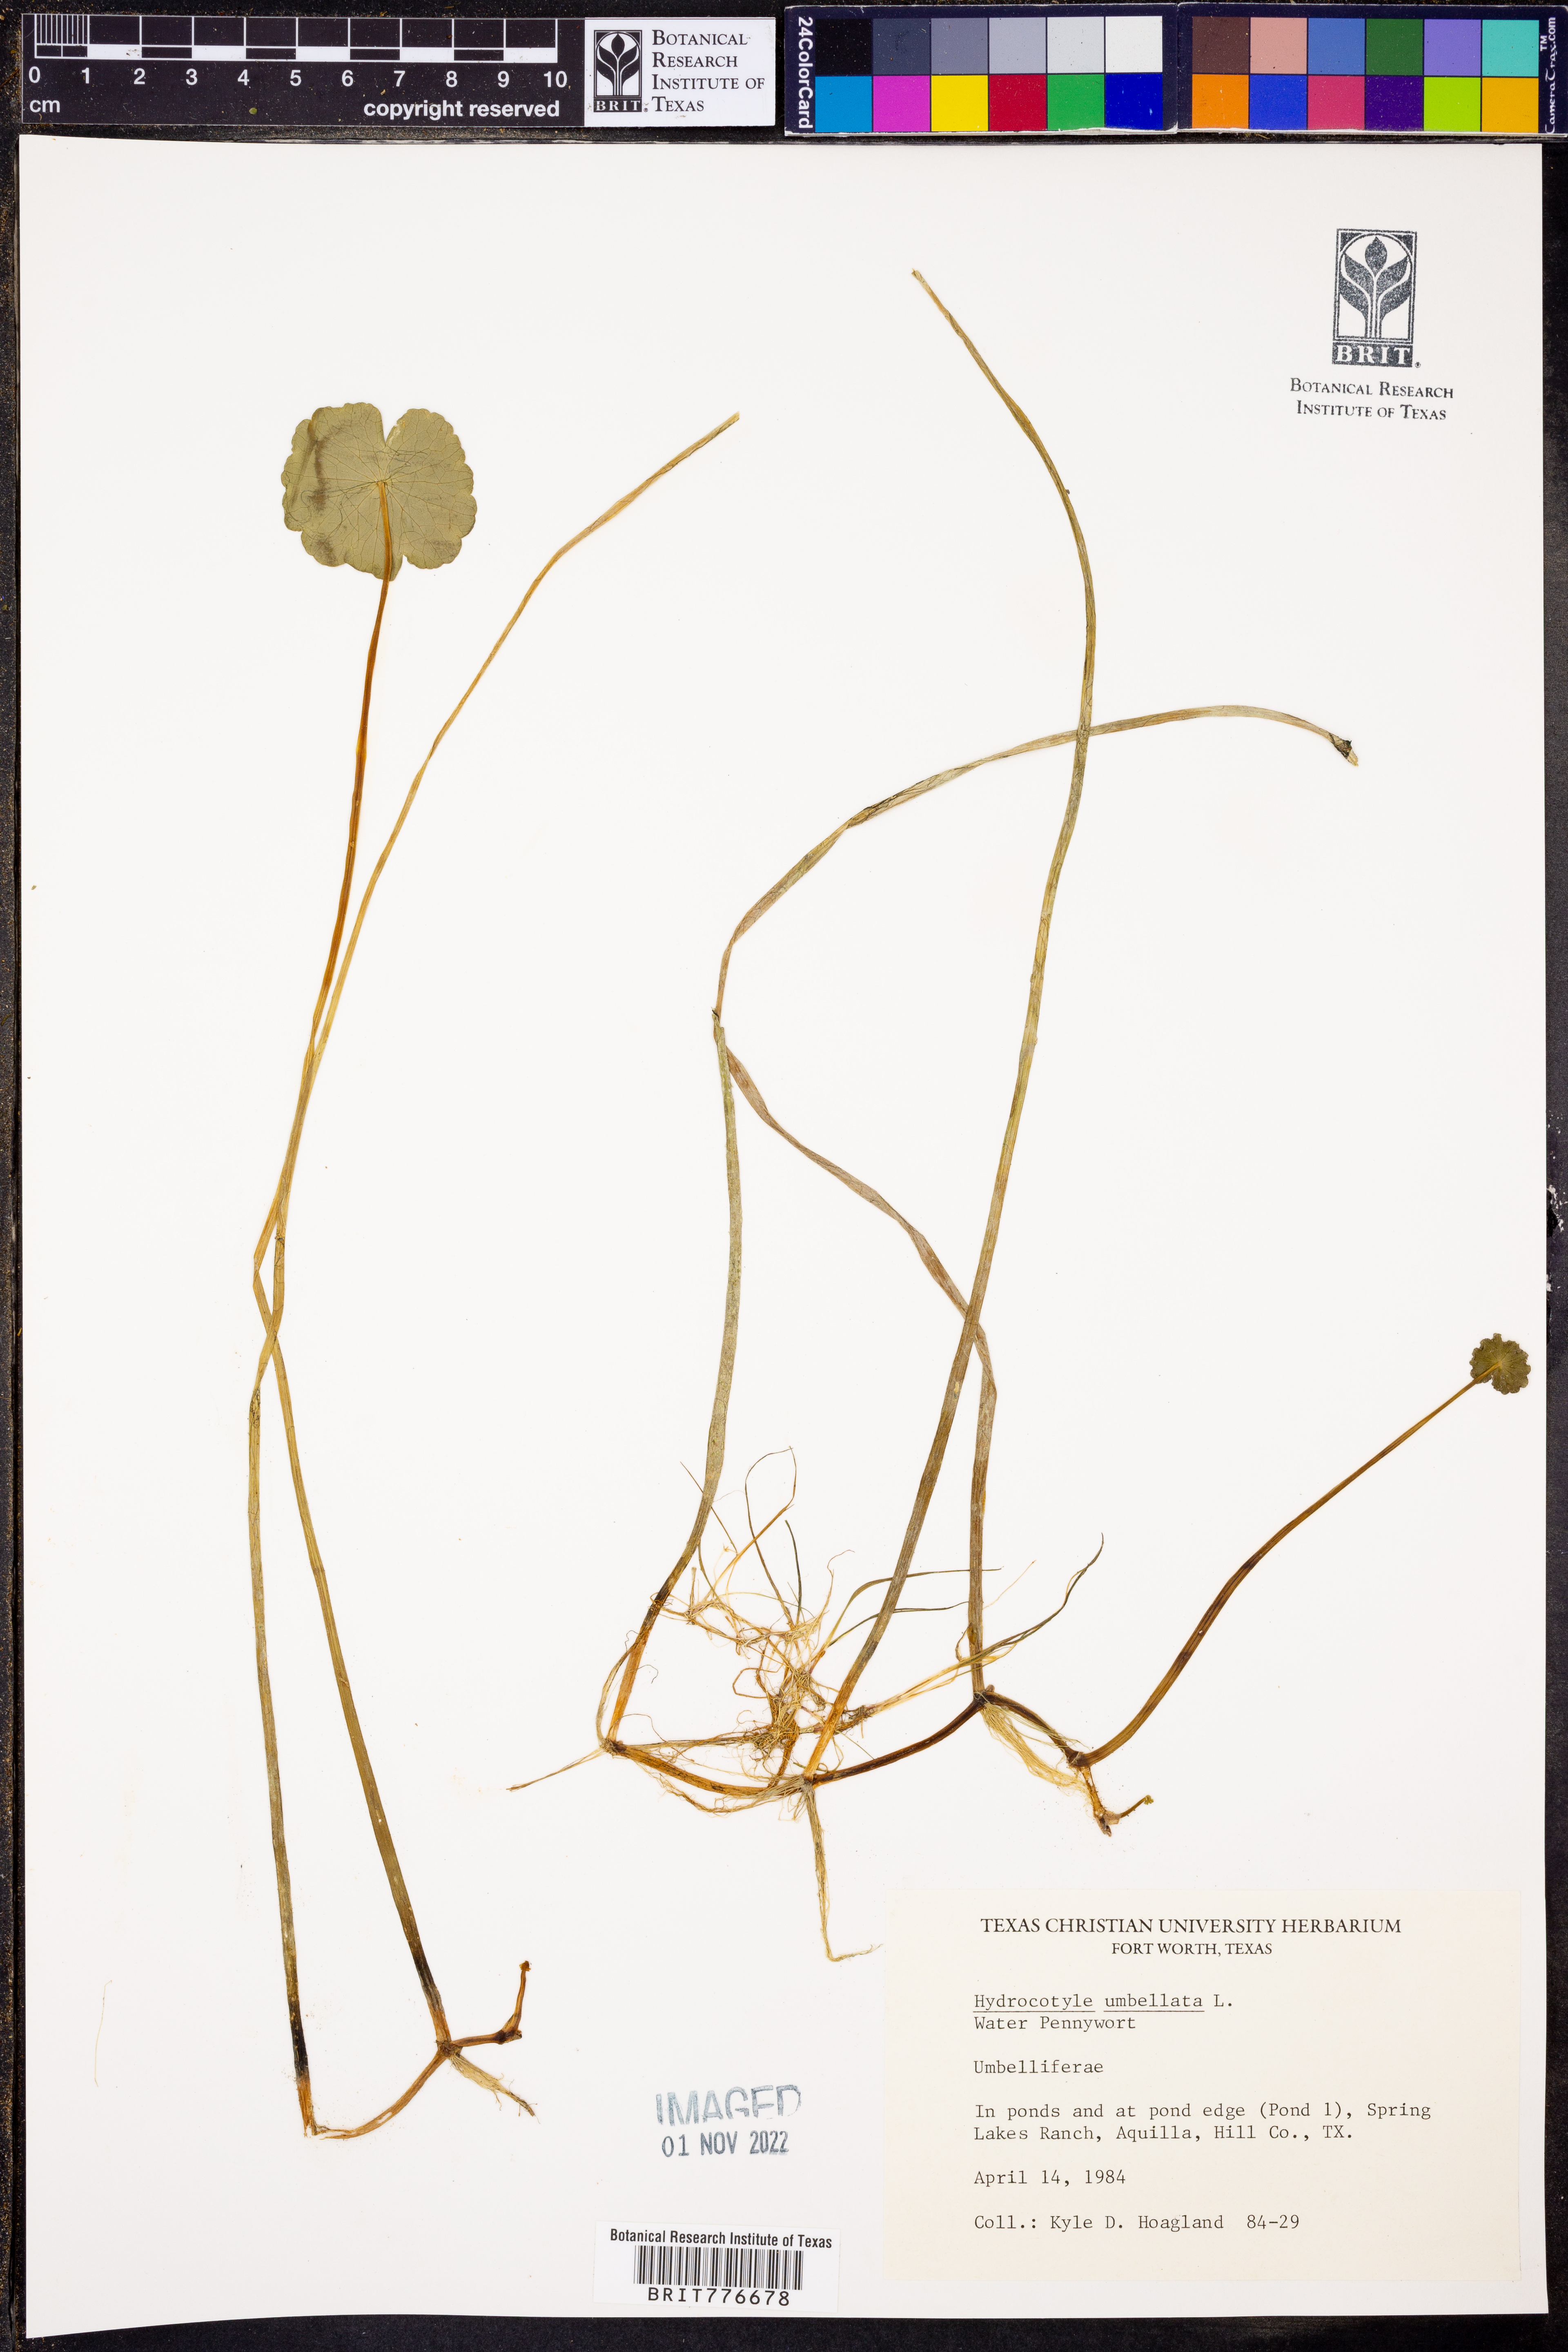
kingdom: Plantae
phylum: Tracheophyta
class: Magnoliopsida
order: Apiales
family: Araliaceae
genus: Hydrocotyle
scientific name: Hydrocotyle umbellata
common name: Water pennywort
